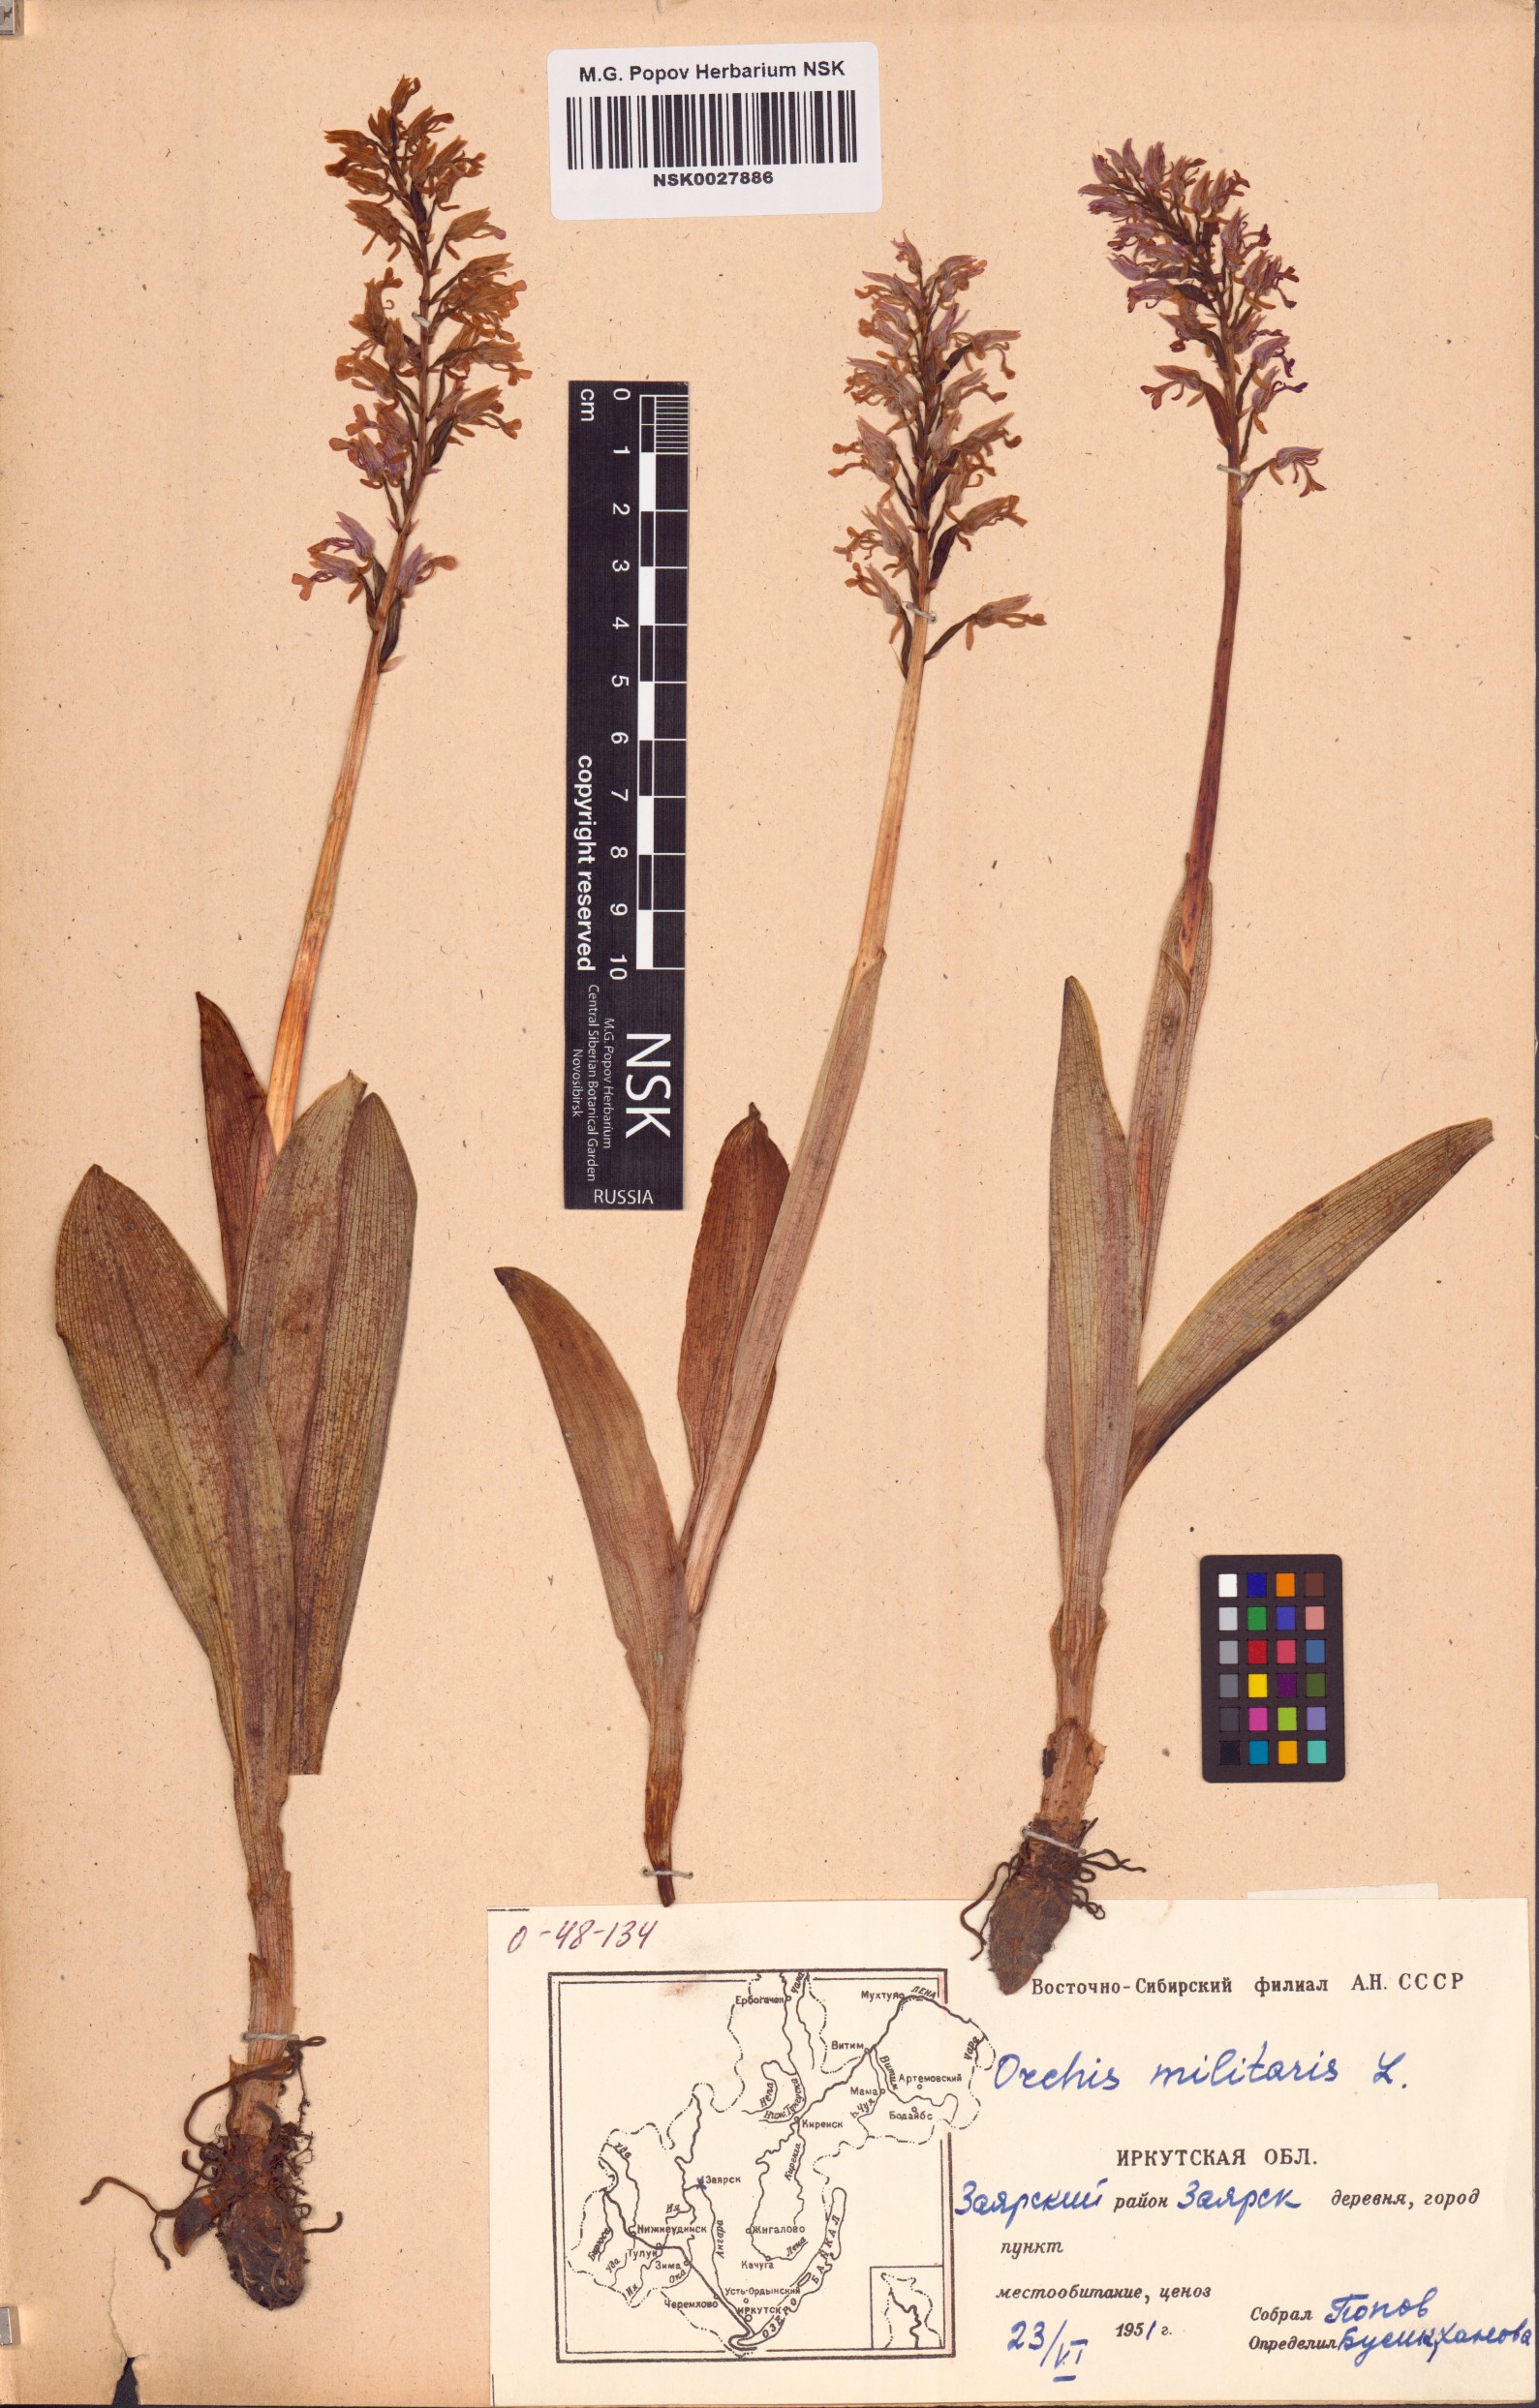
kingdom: Plantae
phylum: Tracheophyta
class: Liliopsida
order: Asparagales
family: Orchidaceae
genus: Orchis
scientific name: Orchis militaris
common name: Military orchid
